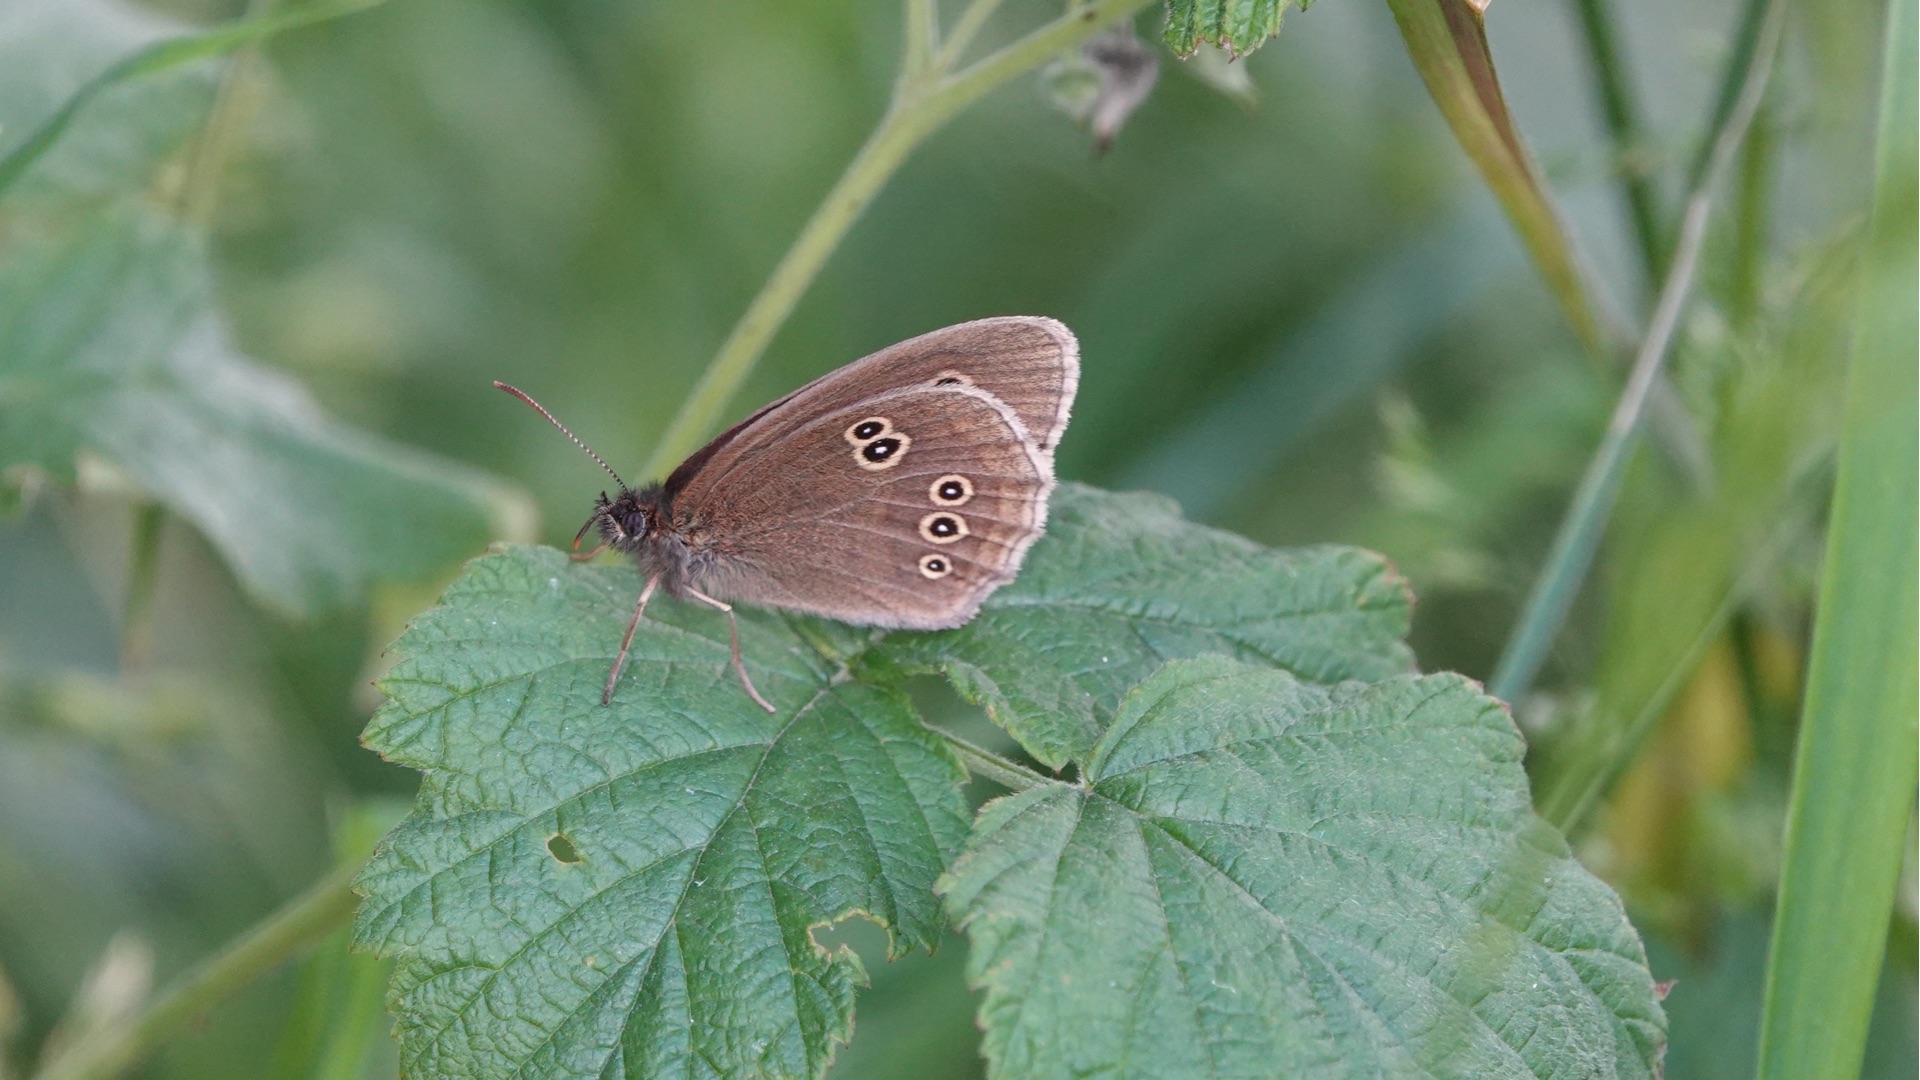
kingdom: Animalia
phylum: Arthropoda
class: Insecta
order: Lepidoptera
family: Nymphalidae
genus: Aphantopus
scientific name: Aphantopus hyperantus
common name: Engrandøje
